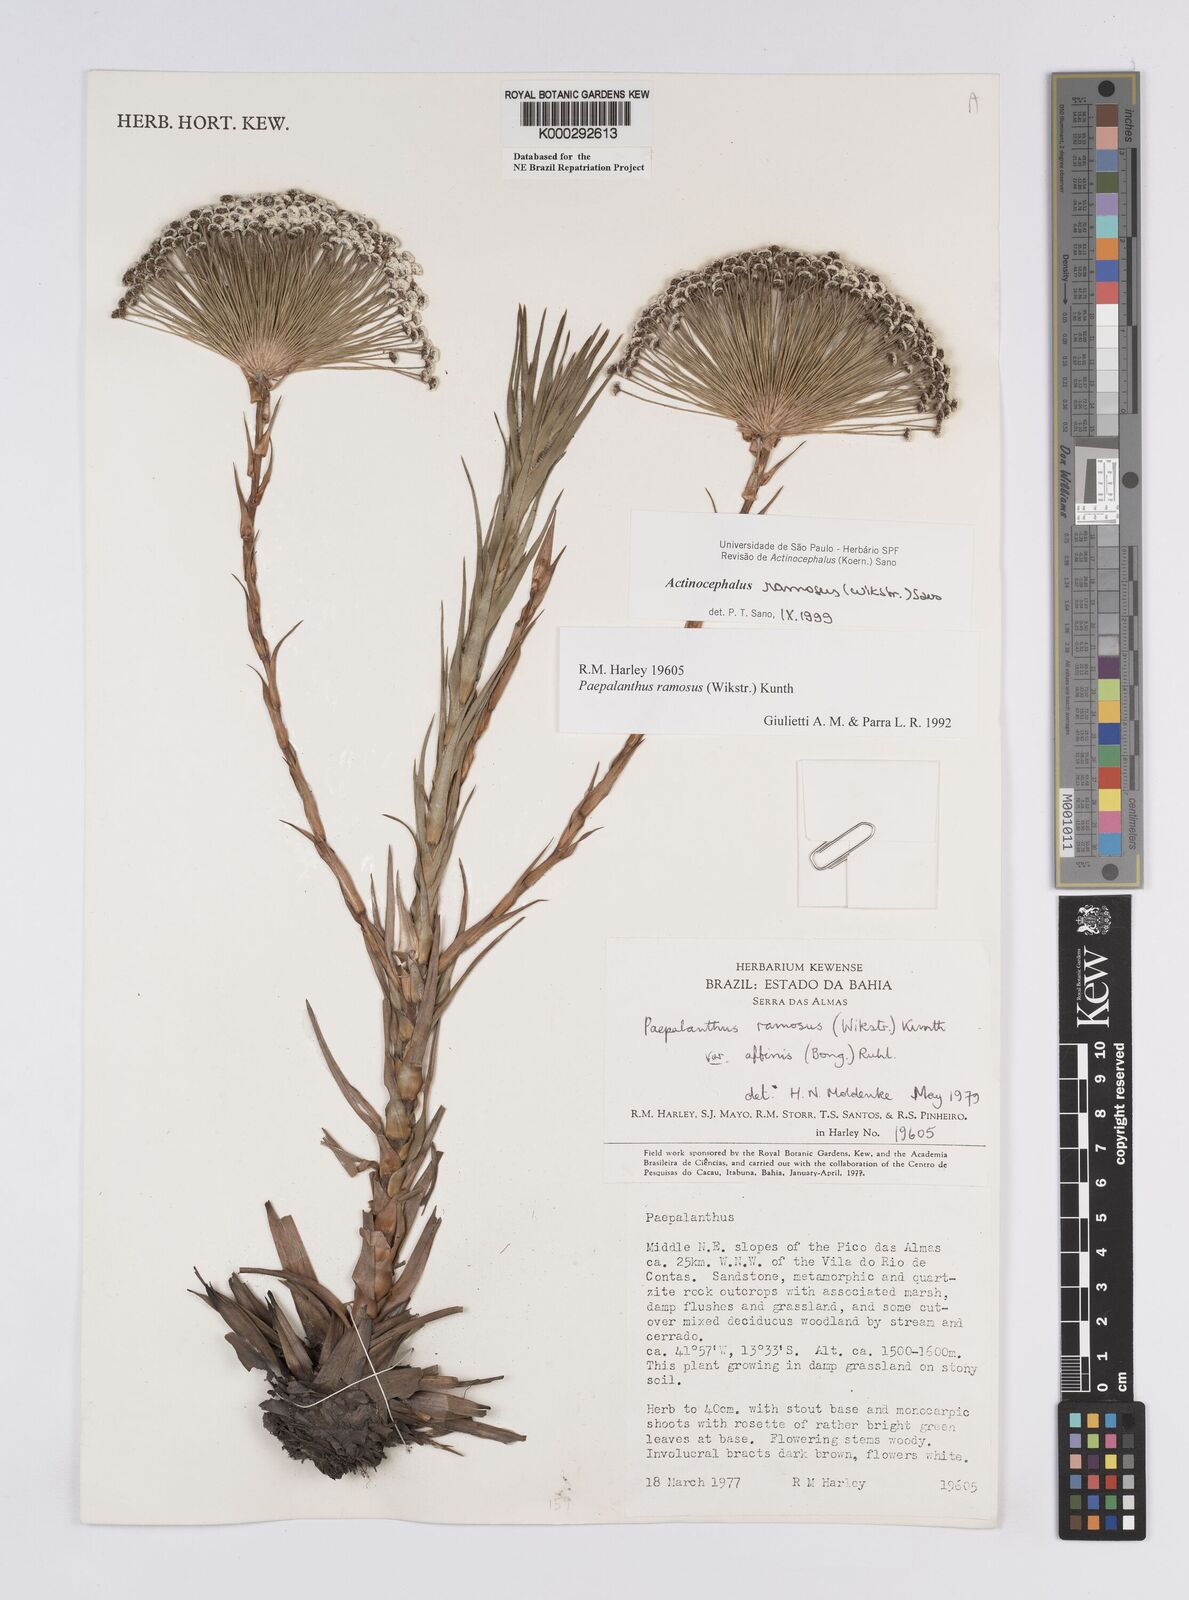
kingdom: Plantae
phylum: Tracheophyta
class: Liliopsida
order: Poales
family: Eriocaulaceae
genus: Paepalanthus
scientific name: Paepalanthus ramosus
